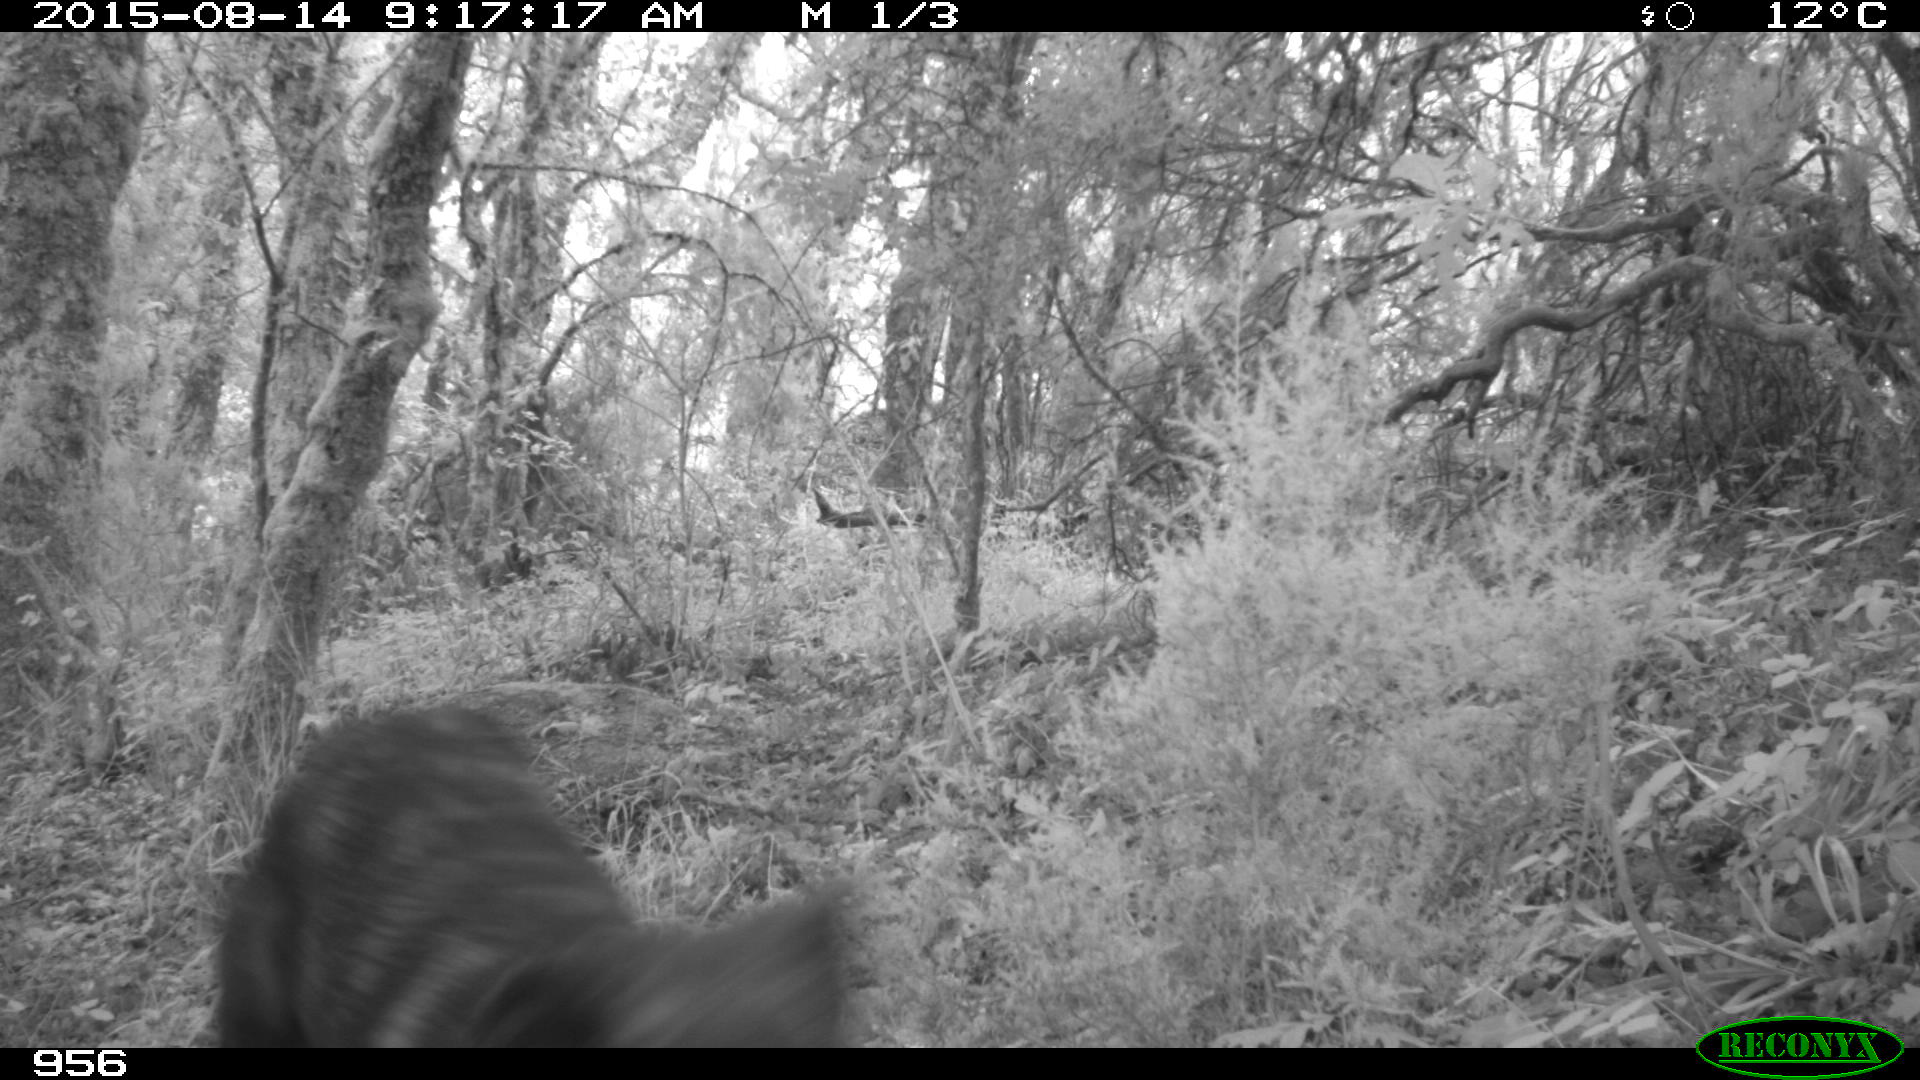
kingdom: Animalia
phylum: Chordata
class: Mammalia
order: Carnivora
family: Canidae
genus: Canis
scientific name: Canis lupus
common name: Gray wolf
